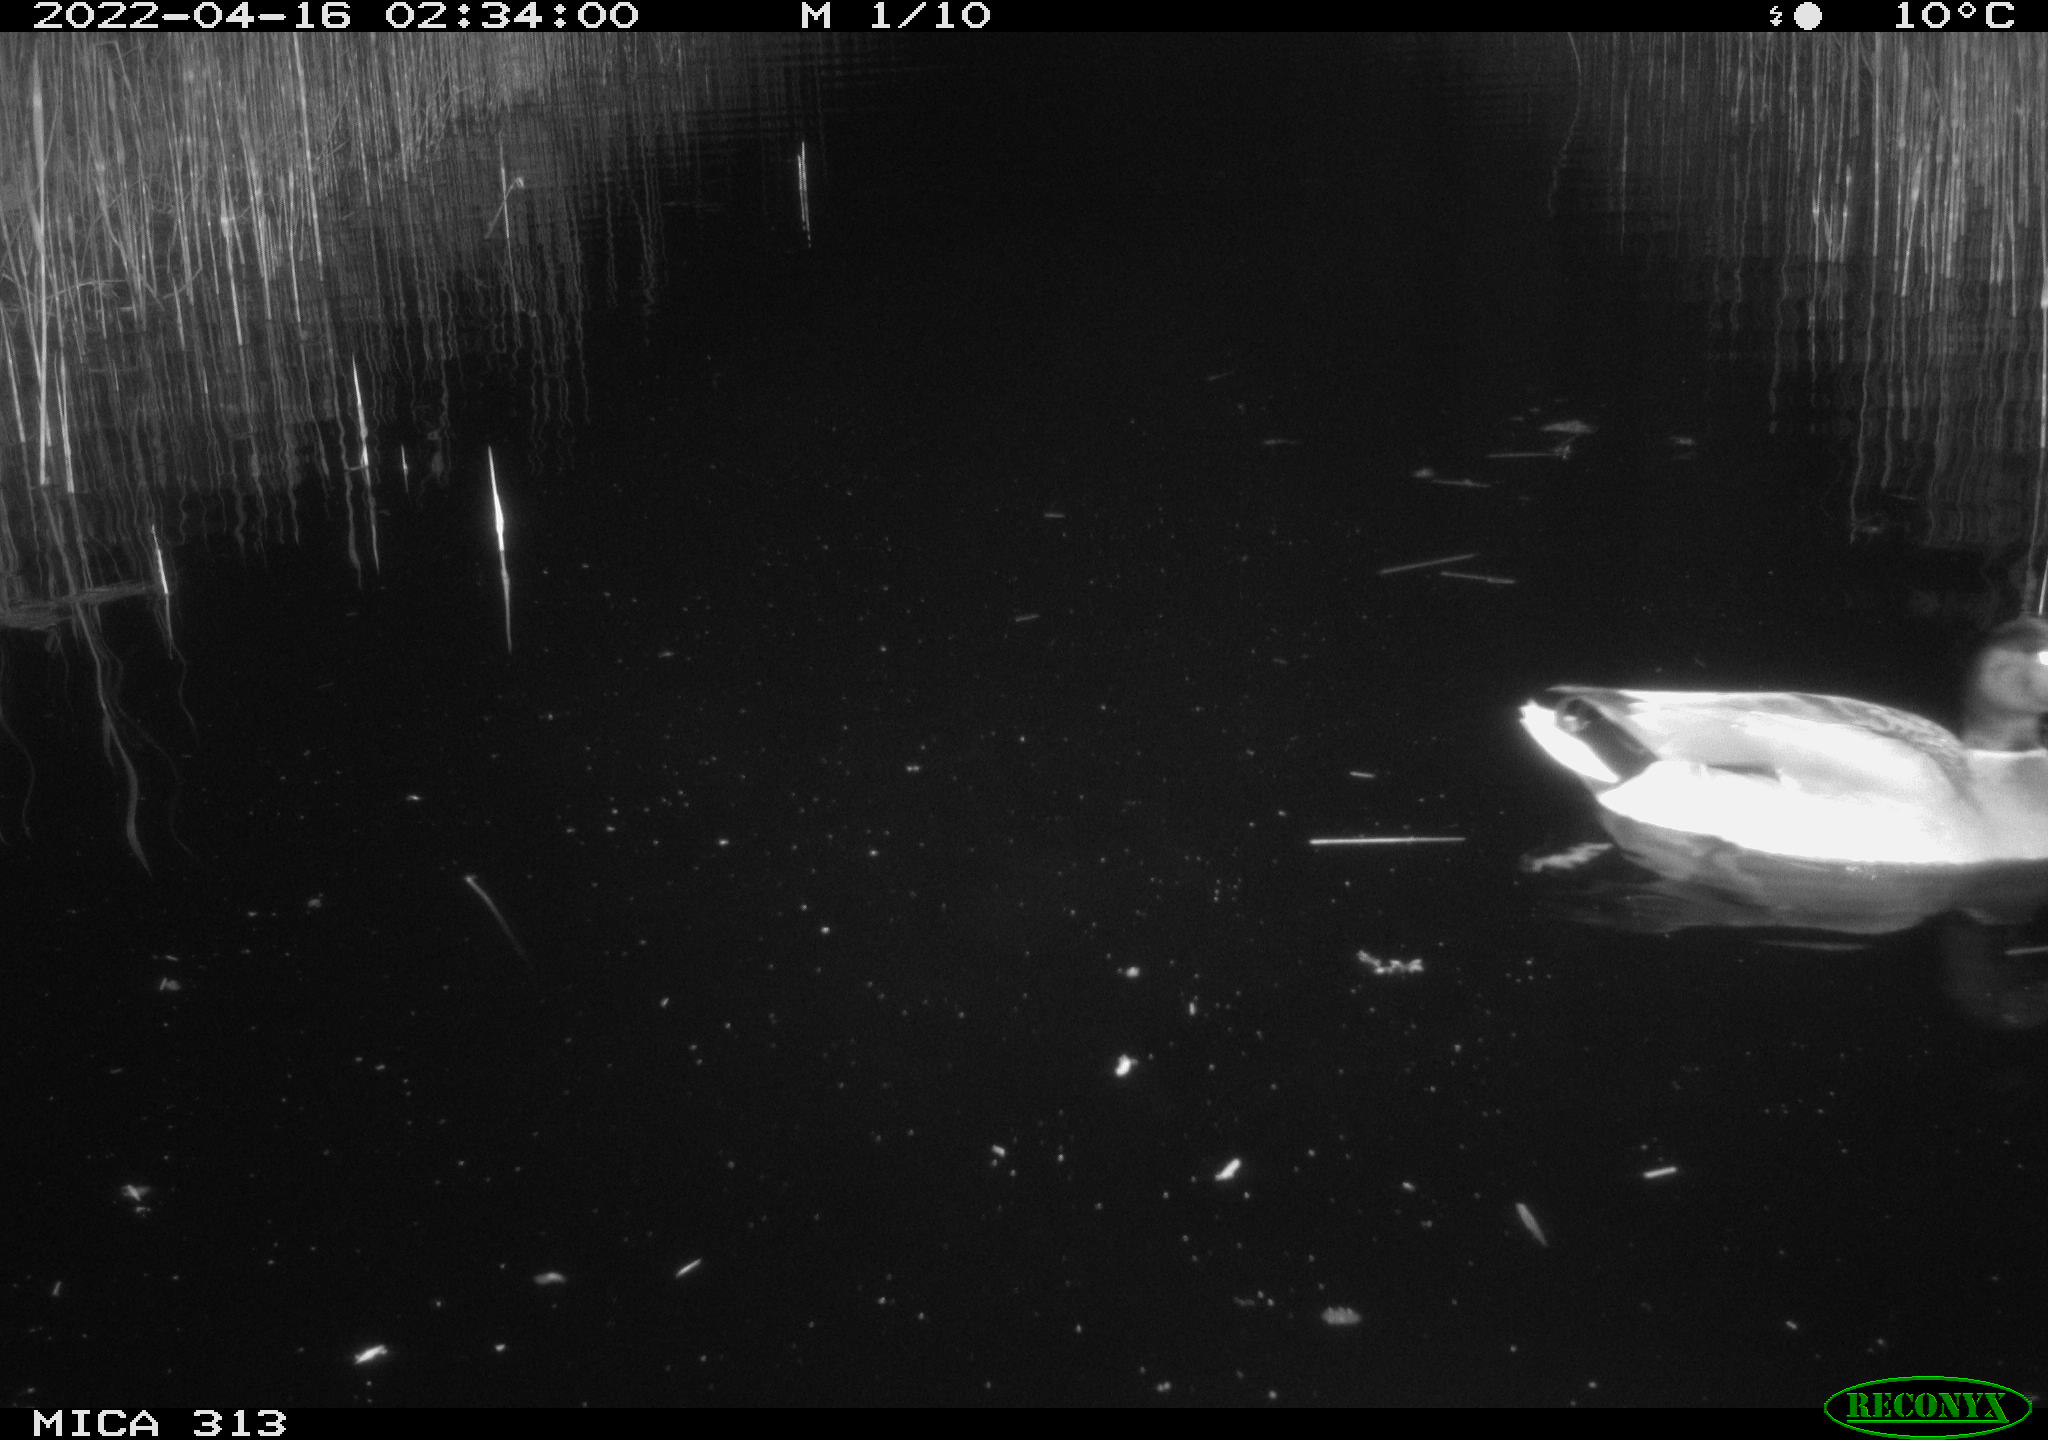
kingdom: Animalia
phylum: Chordata
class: Aves
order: Anseriformes
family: Anatidae
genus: Anas
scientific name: Anas platyrhynchos
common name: Mallard
